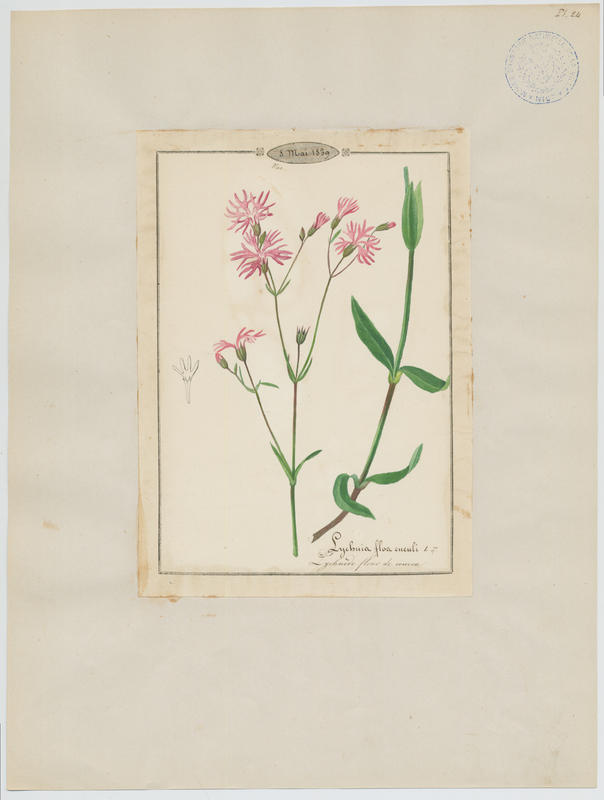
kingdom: Plantae
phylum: Tracheophyta
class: Magnoliopsida
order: Caryophyllales
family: Caryophyllaceae
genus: Silene
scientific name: Silene flos-cuculi
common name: Ragged-robin
